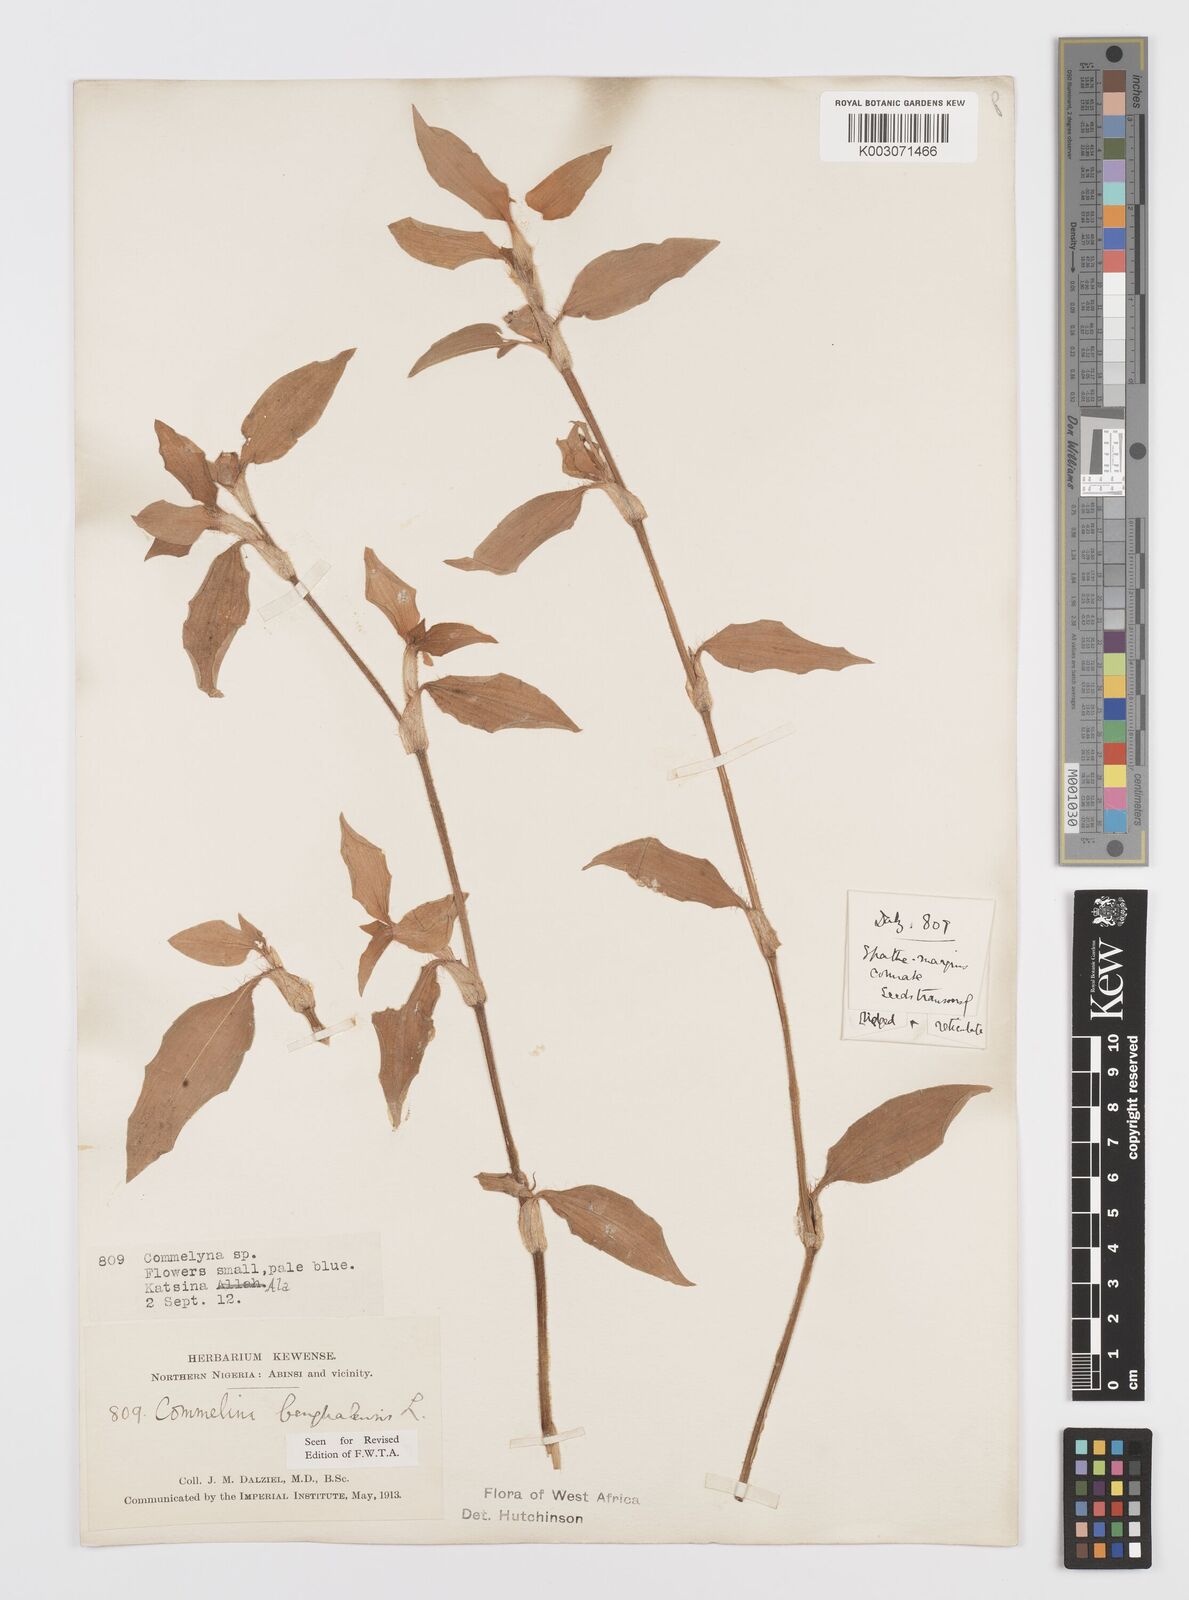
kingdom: Plantae
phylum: Tracheophyta
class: Liliopsida
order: Commelinales
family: Commelinaceae
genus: Commelina
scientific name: Commelina africana
